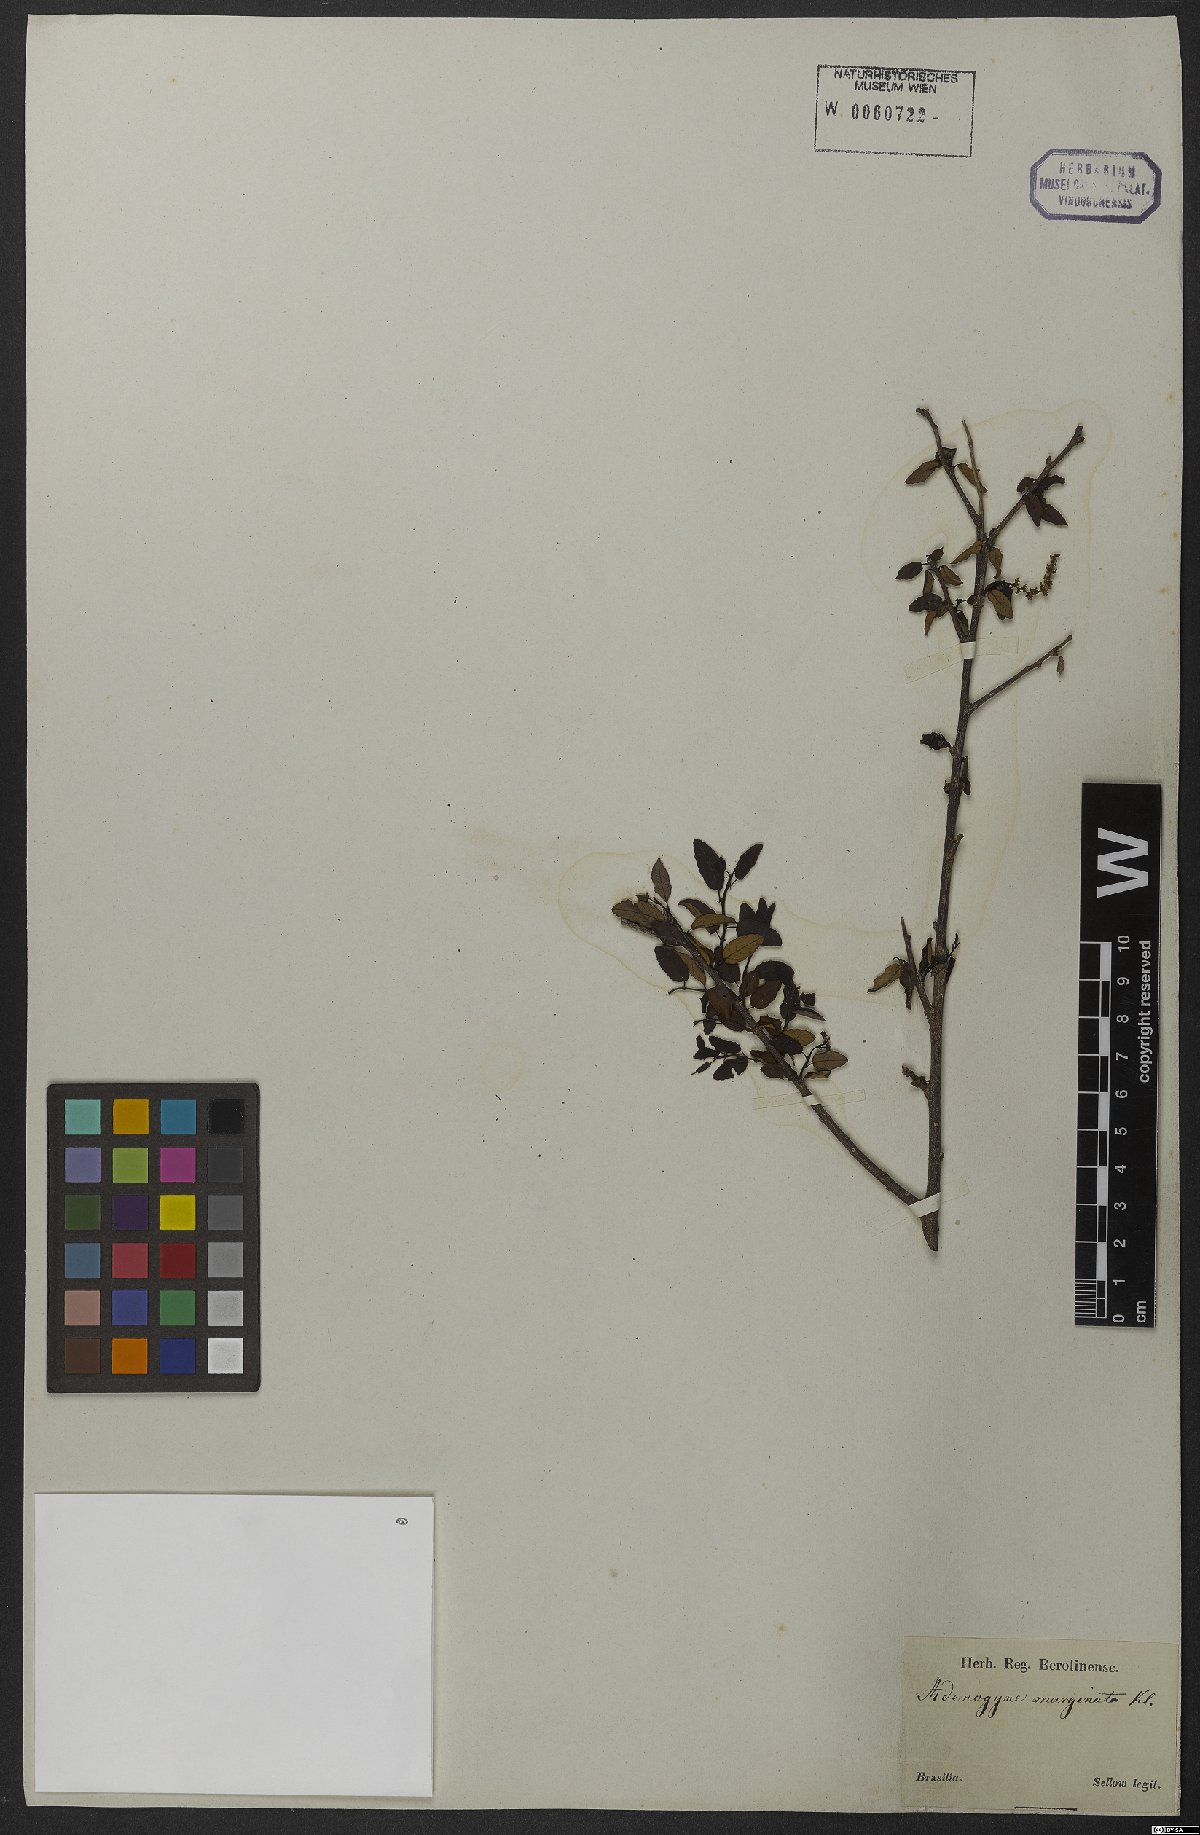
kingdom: Plantae
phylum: Tracheophyta
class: Magnoliopsida
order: Malpighiales
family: Euphorbiaceae
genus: Sebastiania
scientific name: Sebastiania klotzschiana
